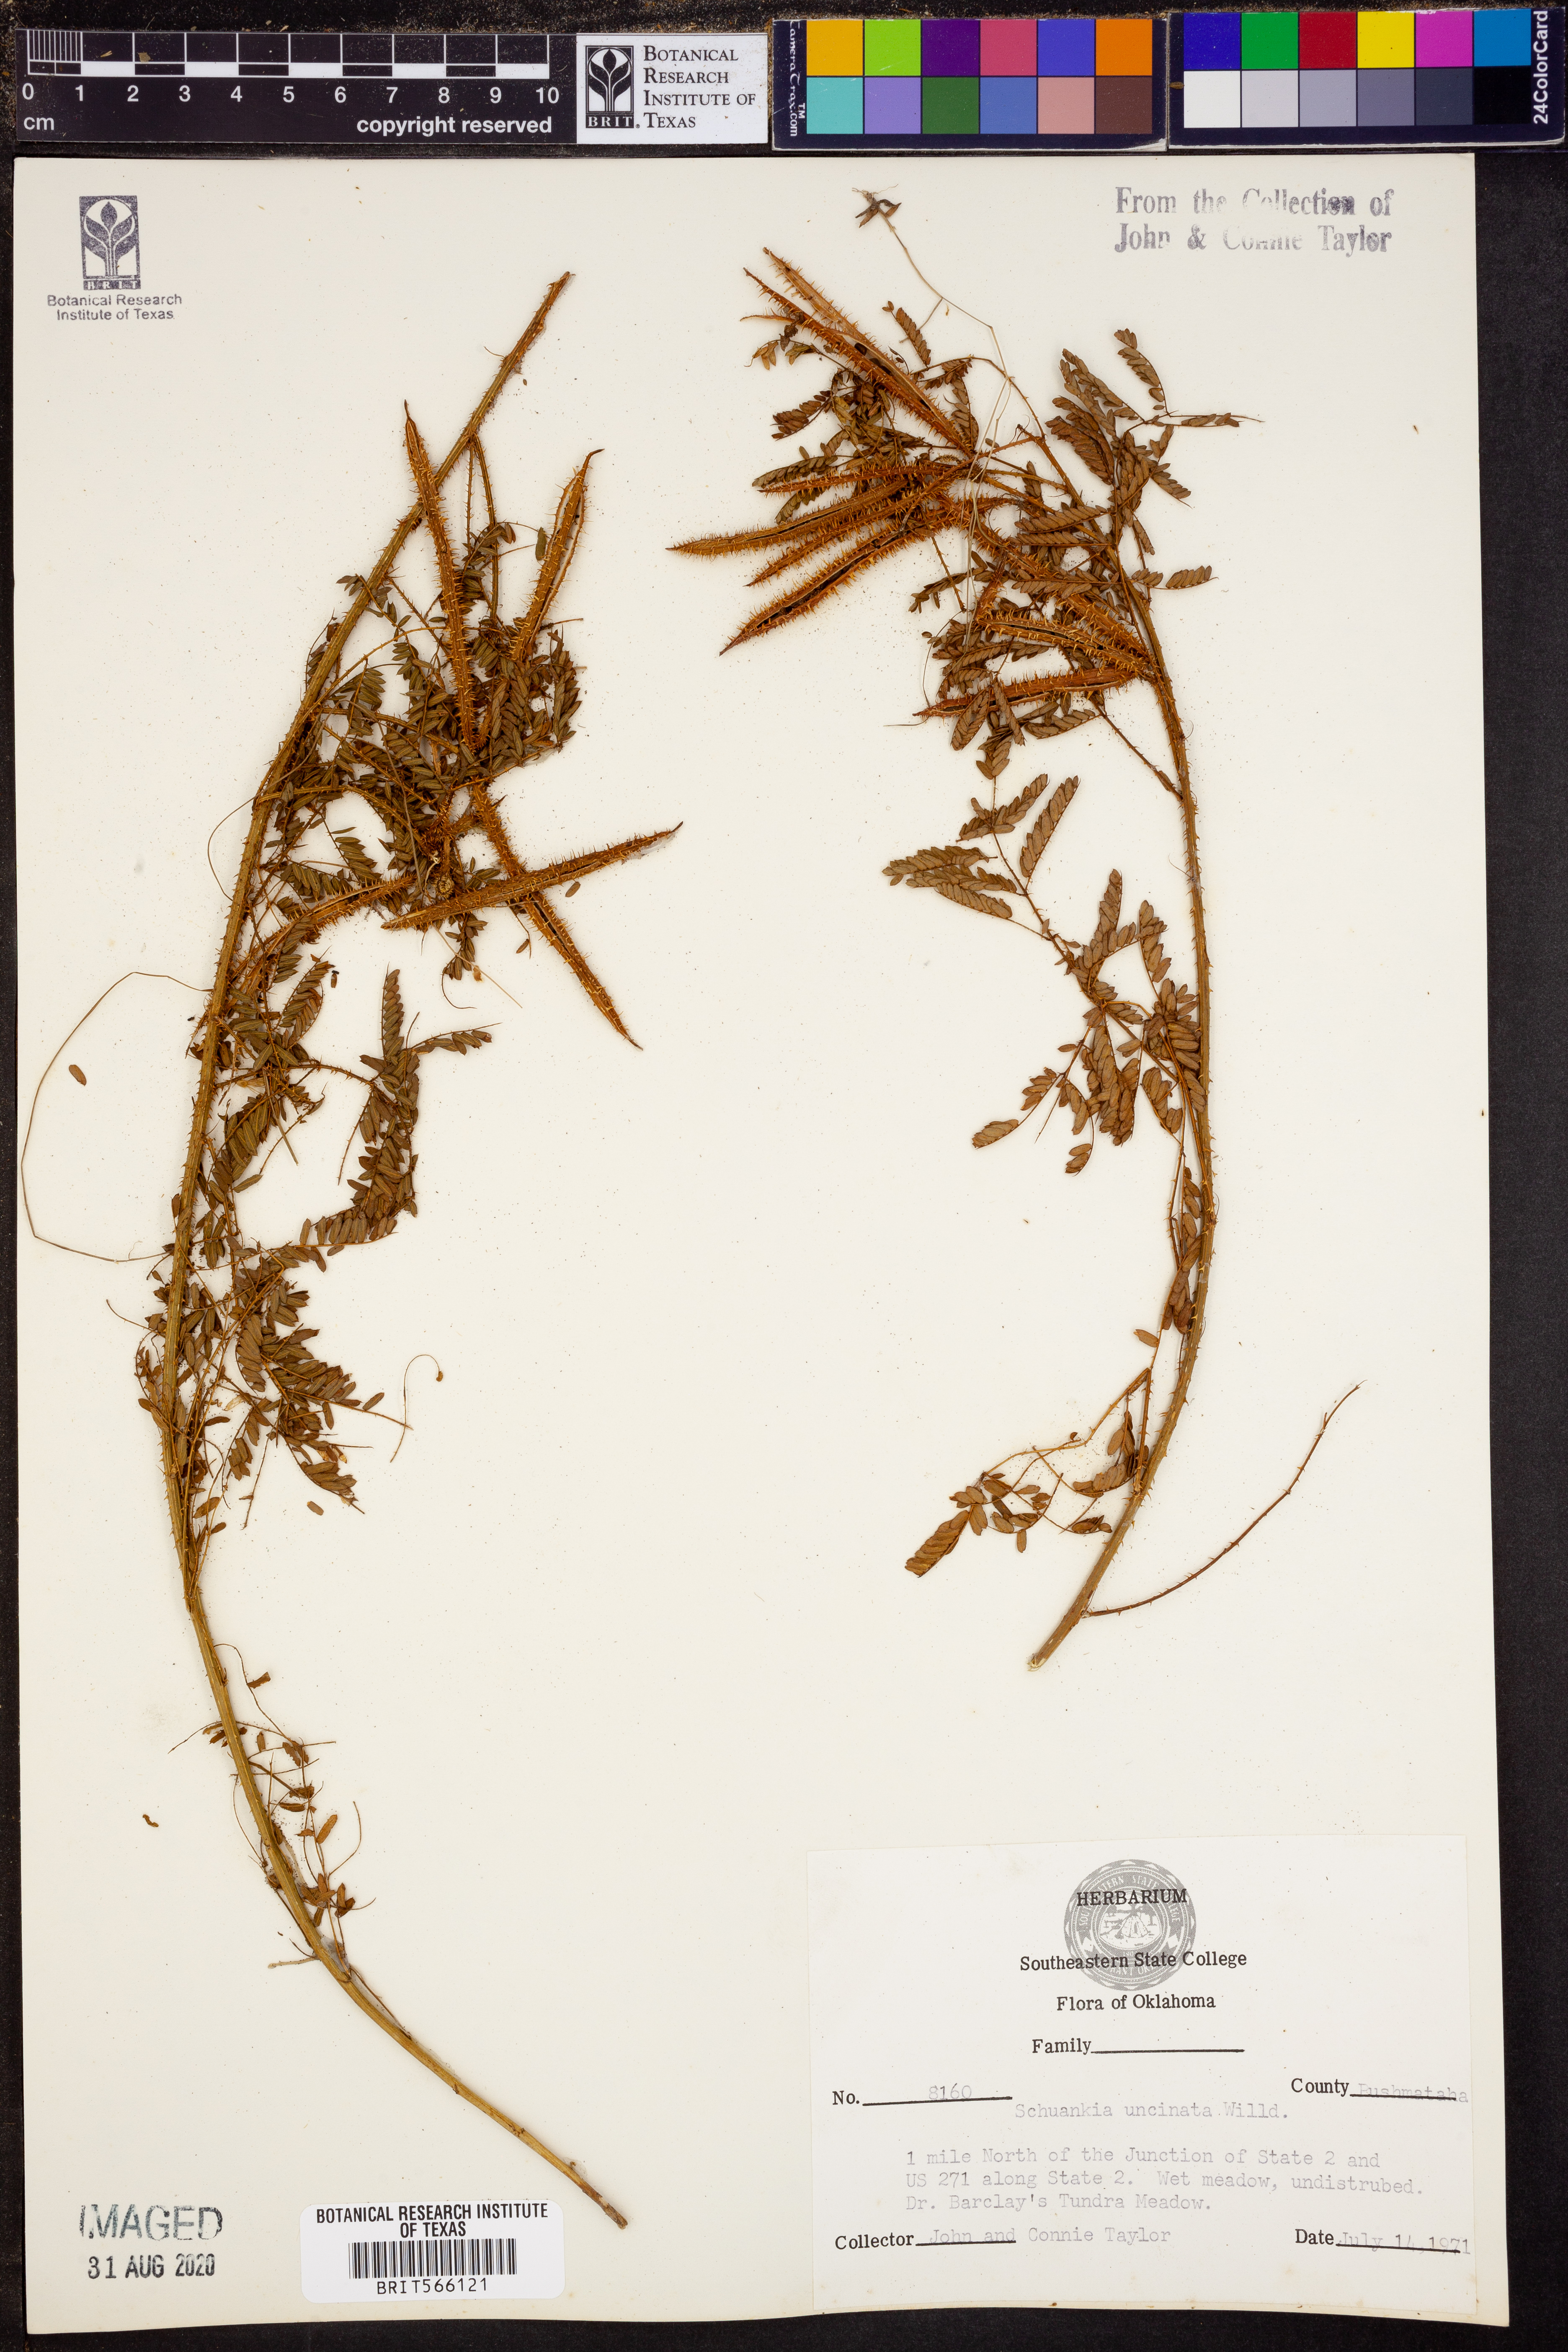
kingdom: Plantae
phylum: Tracheophyta
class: Magnoliopsida
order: Fabales
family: Fabaceae
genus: Mimosa
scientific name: Mimosa quadrivalvis
